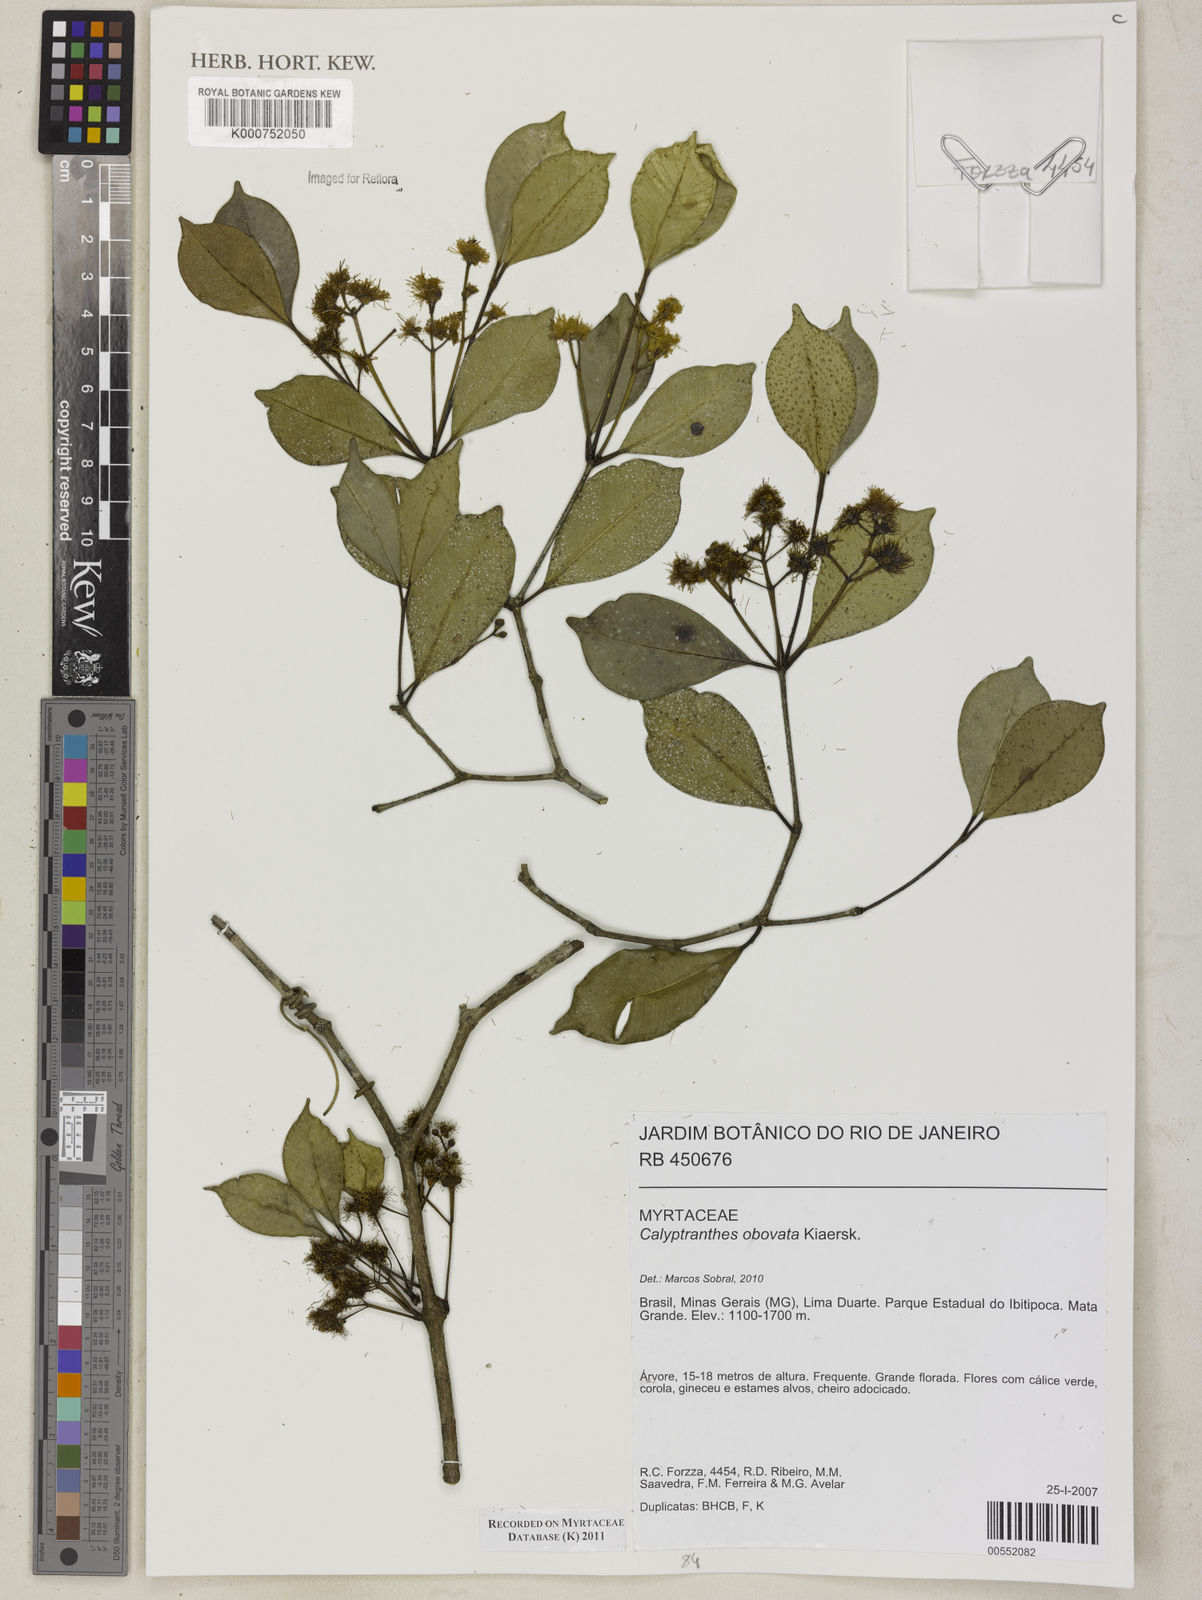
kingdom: Plantae
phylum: Tracheophyta
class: Magnoliopsida
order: Myrtales
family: Myrtaceae
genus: Myrcia
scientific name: Myrcia legrandii
